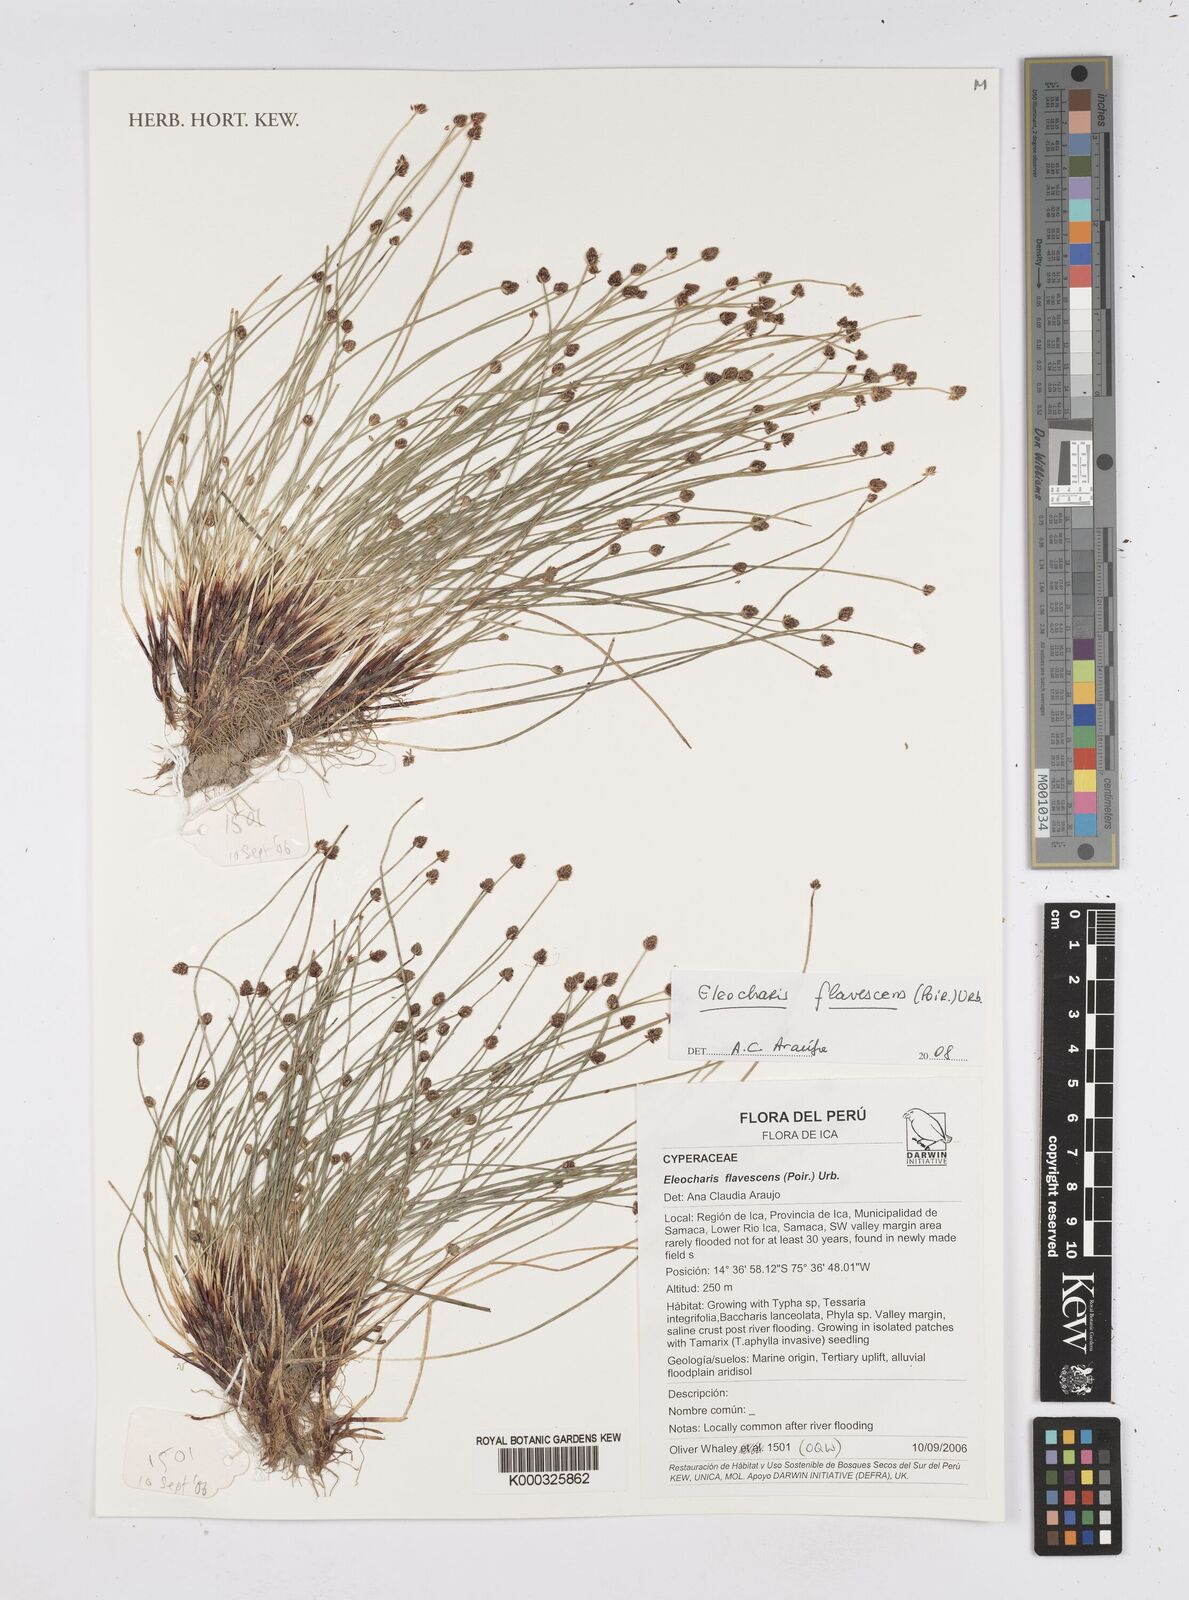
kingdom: Plantae
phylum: Tracheophyta
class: Liliopsida
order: Poales
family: Cyperaceae
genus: Eleocharis
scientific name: Eleocharis flavescens
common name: Yellow spikerush
